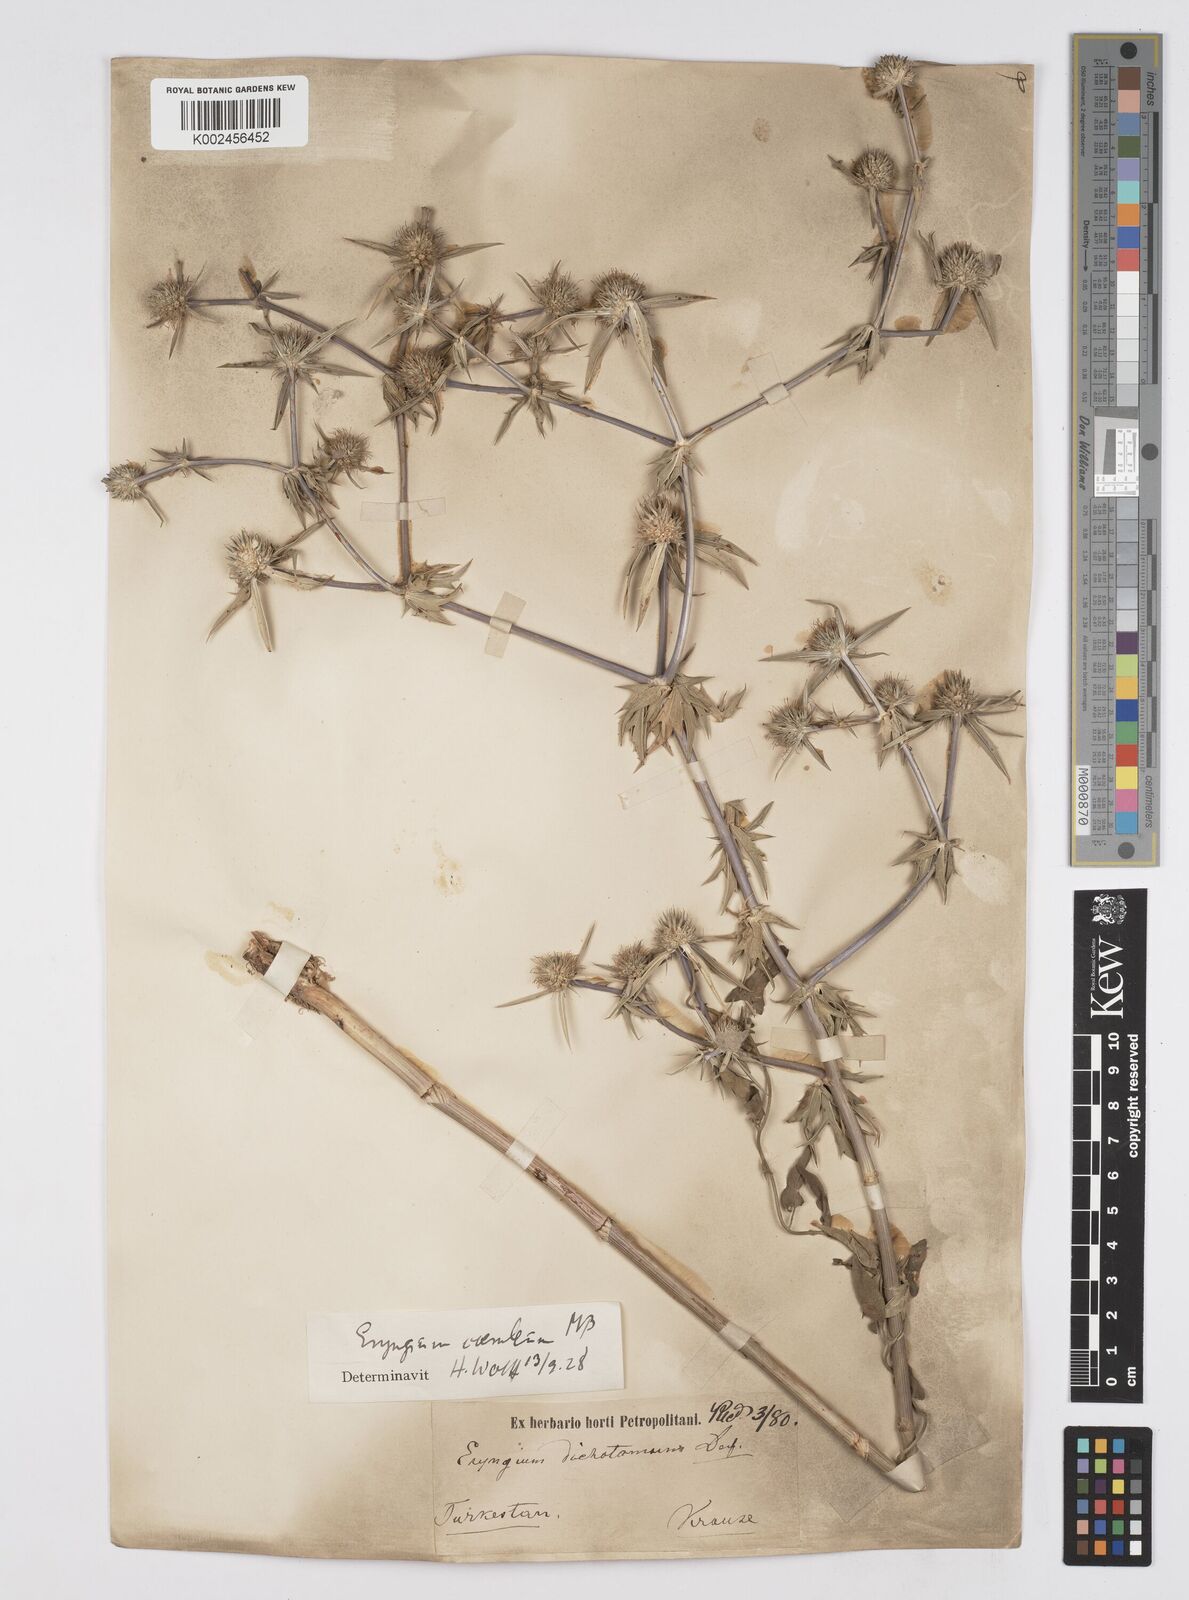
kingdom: Plantae
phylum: Tracheophyta
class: Magnoliopsida
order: Apiales
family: Apiaceae
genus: Eryngium
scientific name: Eryngium caeruleum
